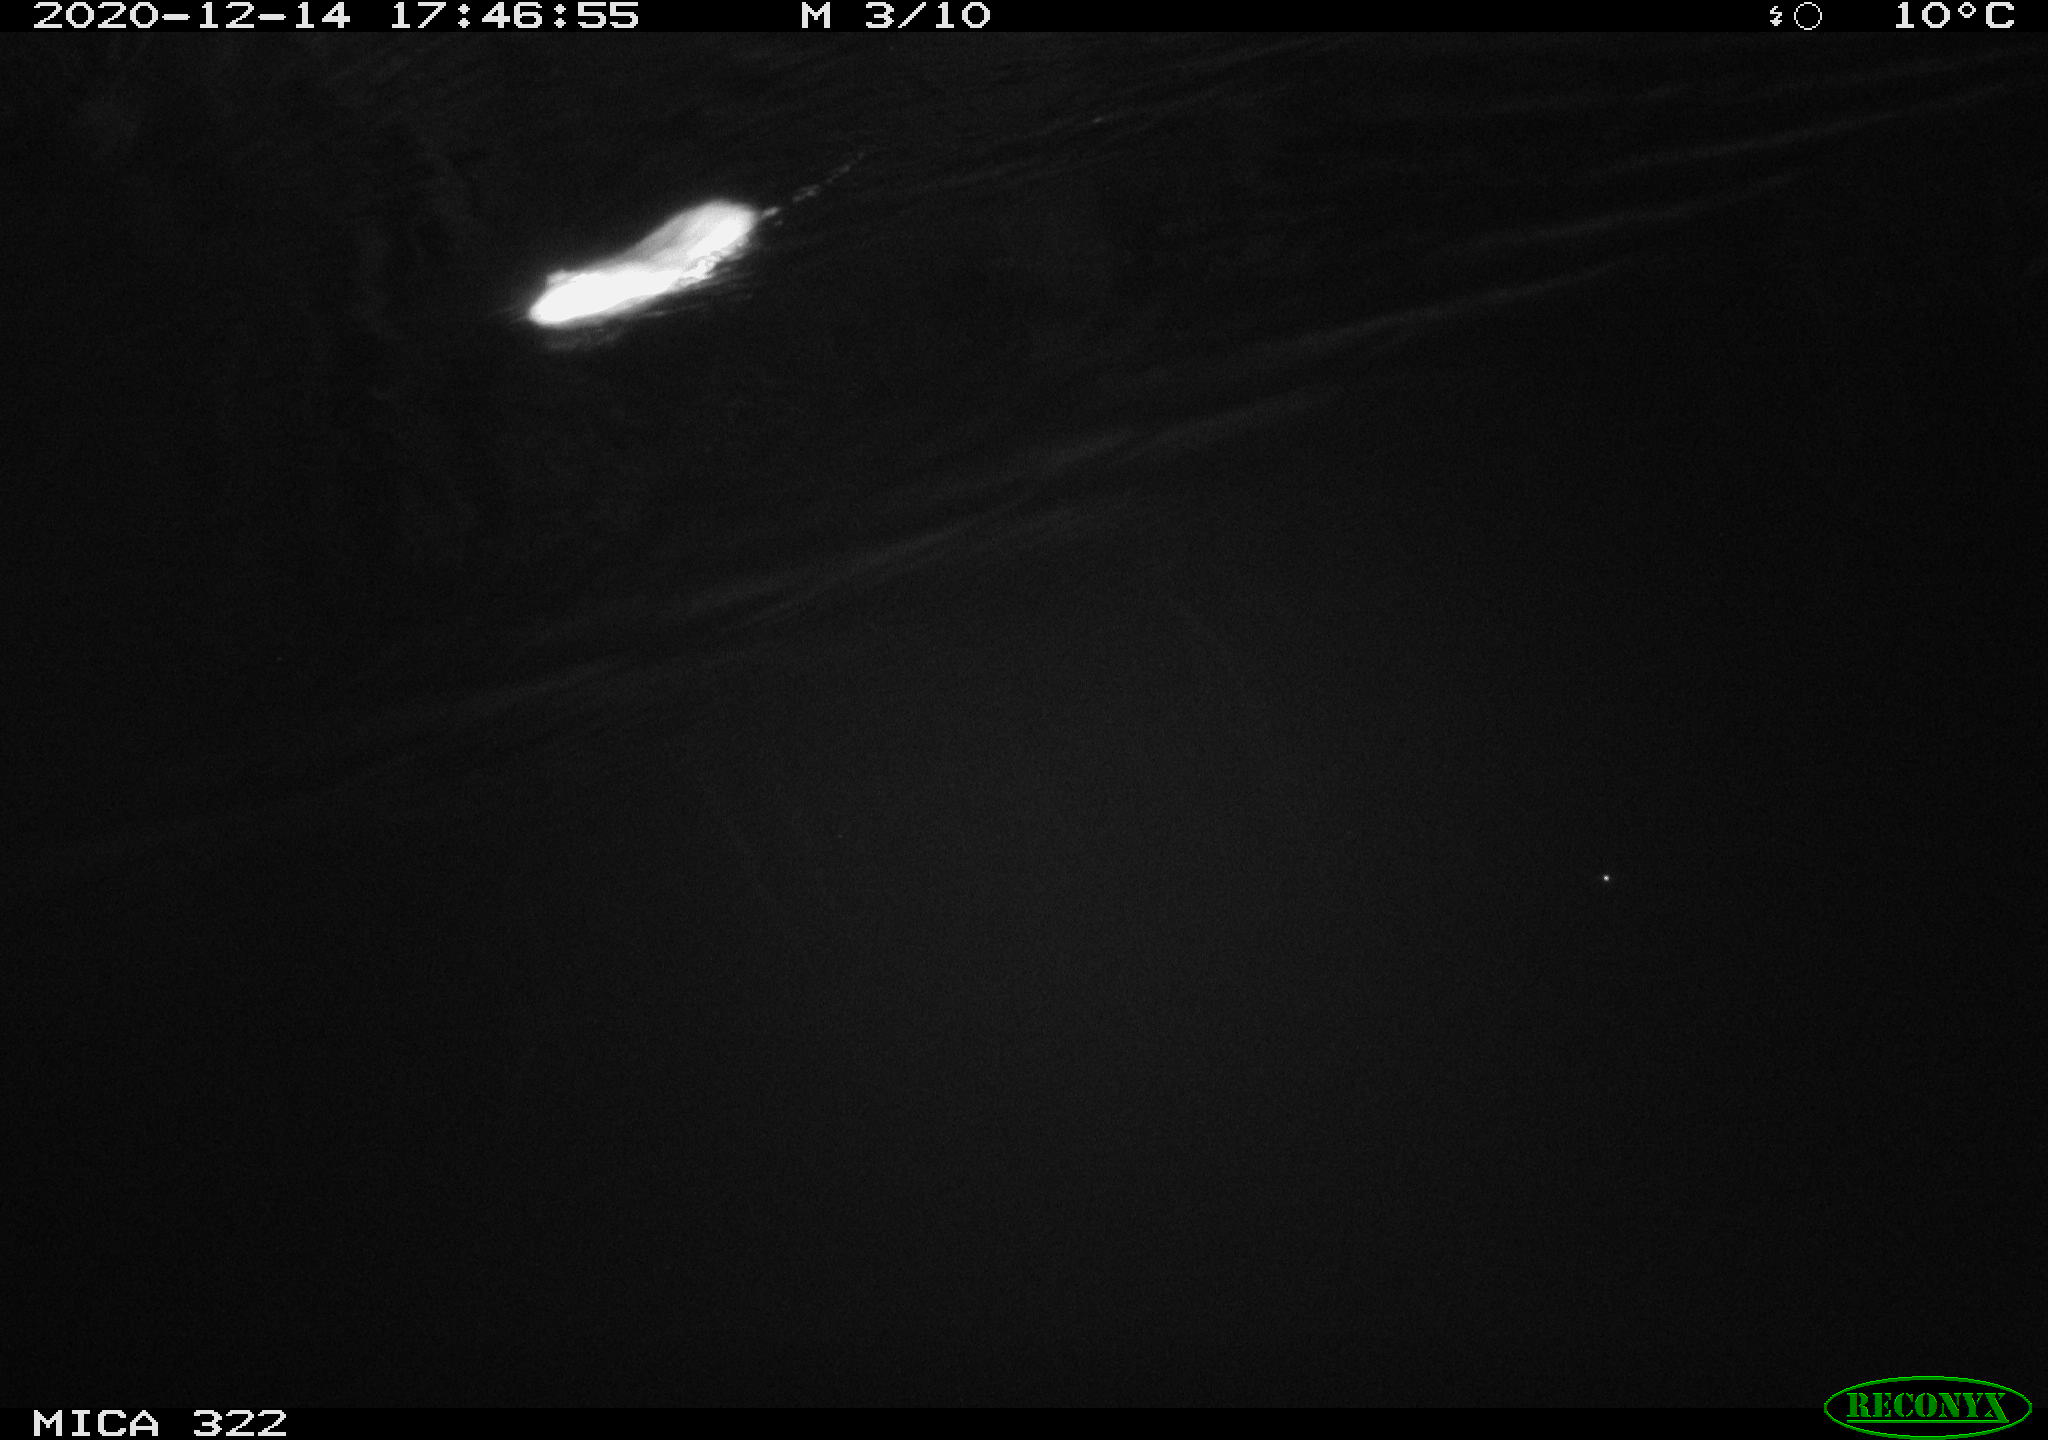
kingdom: Animalia
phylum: Chordata
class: Mammalia
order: Rodentia
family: Muridae
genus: Rattus
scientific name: Rattus norvegicus
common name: Brown rat
